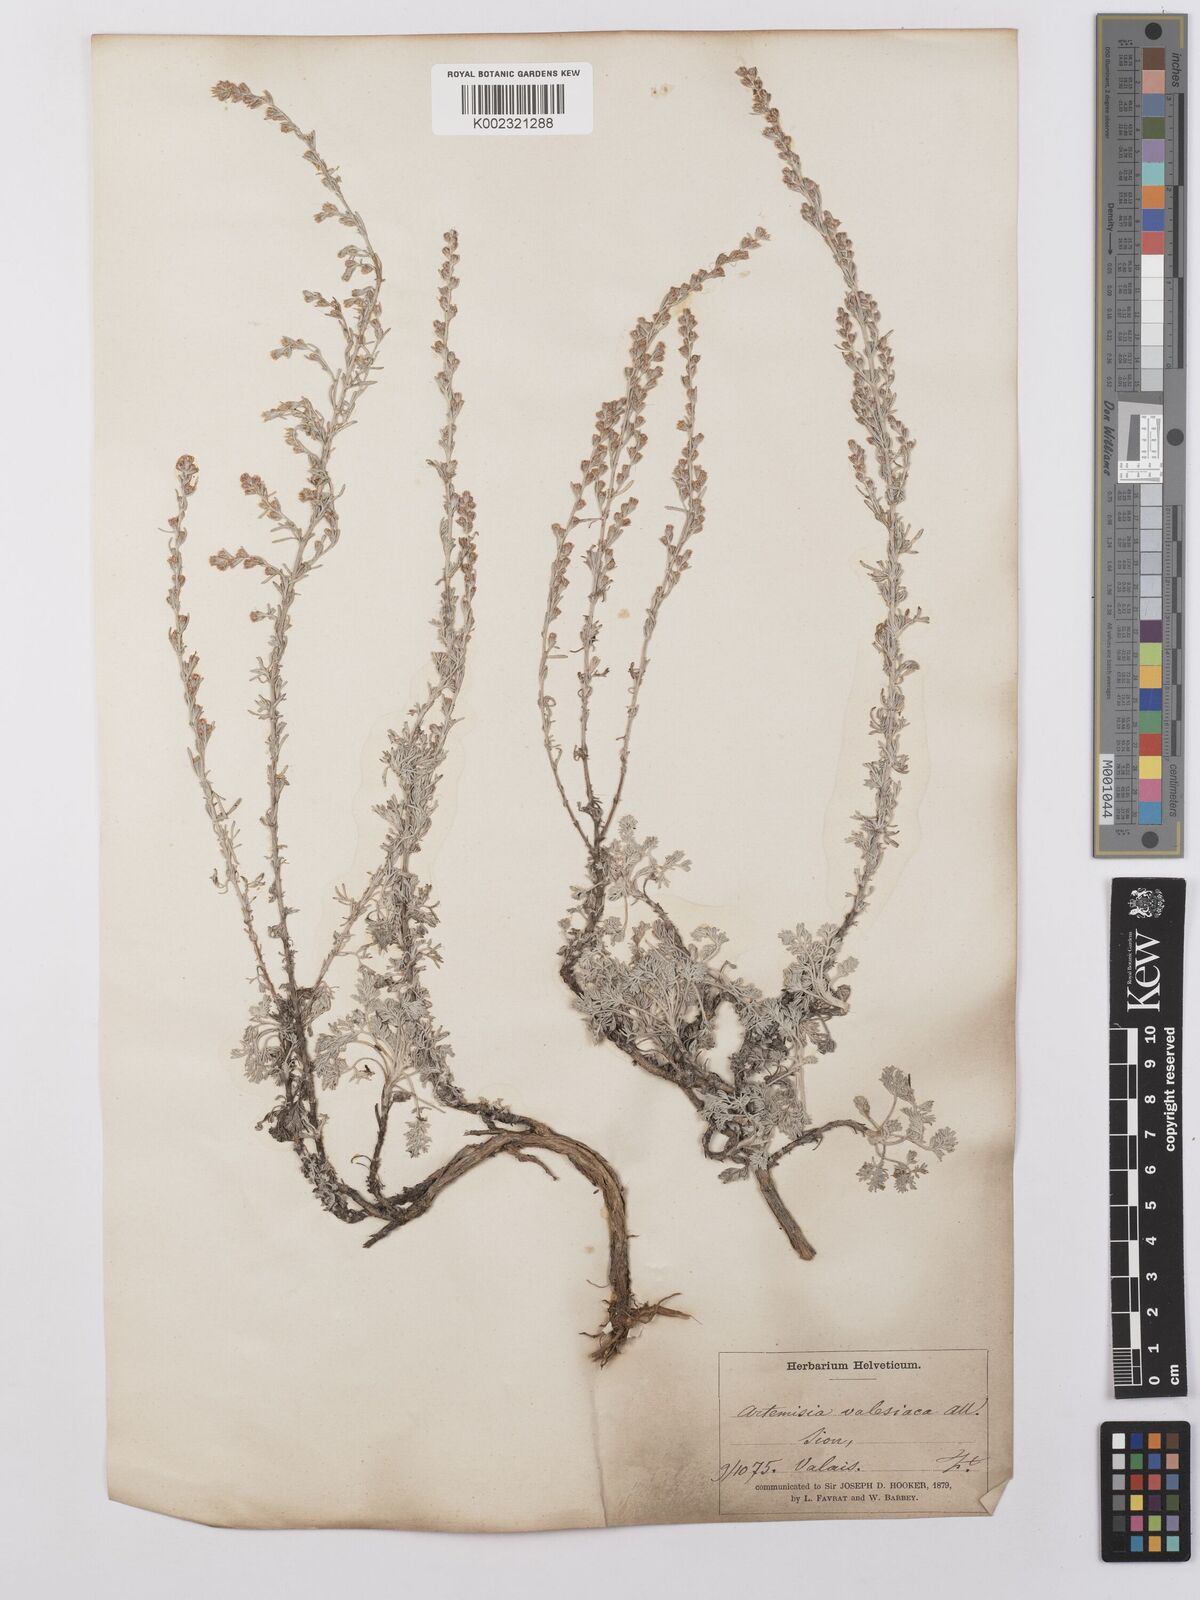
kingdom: Plantae
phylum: Tracheophyta
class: Magnoliopsida
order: Asterales
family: Asteraceae
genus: Artemisia
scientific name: Artemisia vallesiaca
